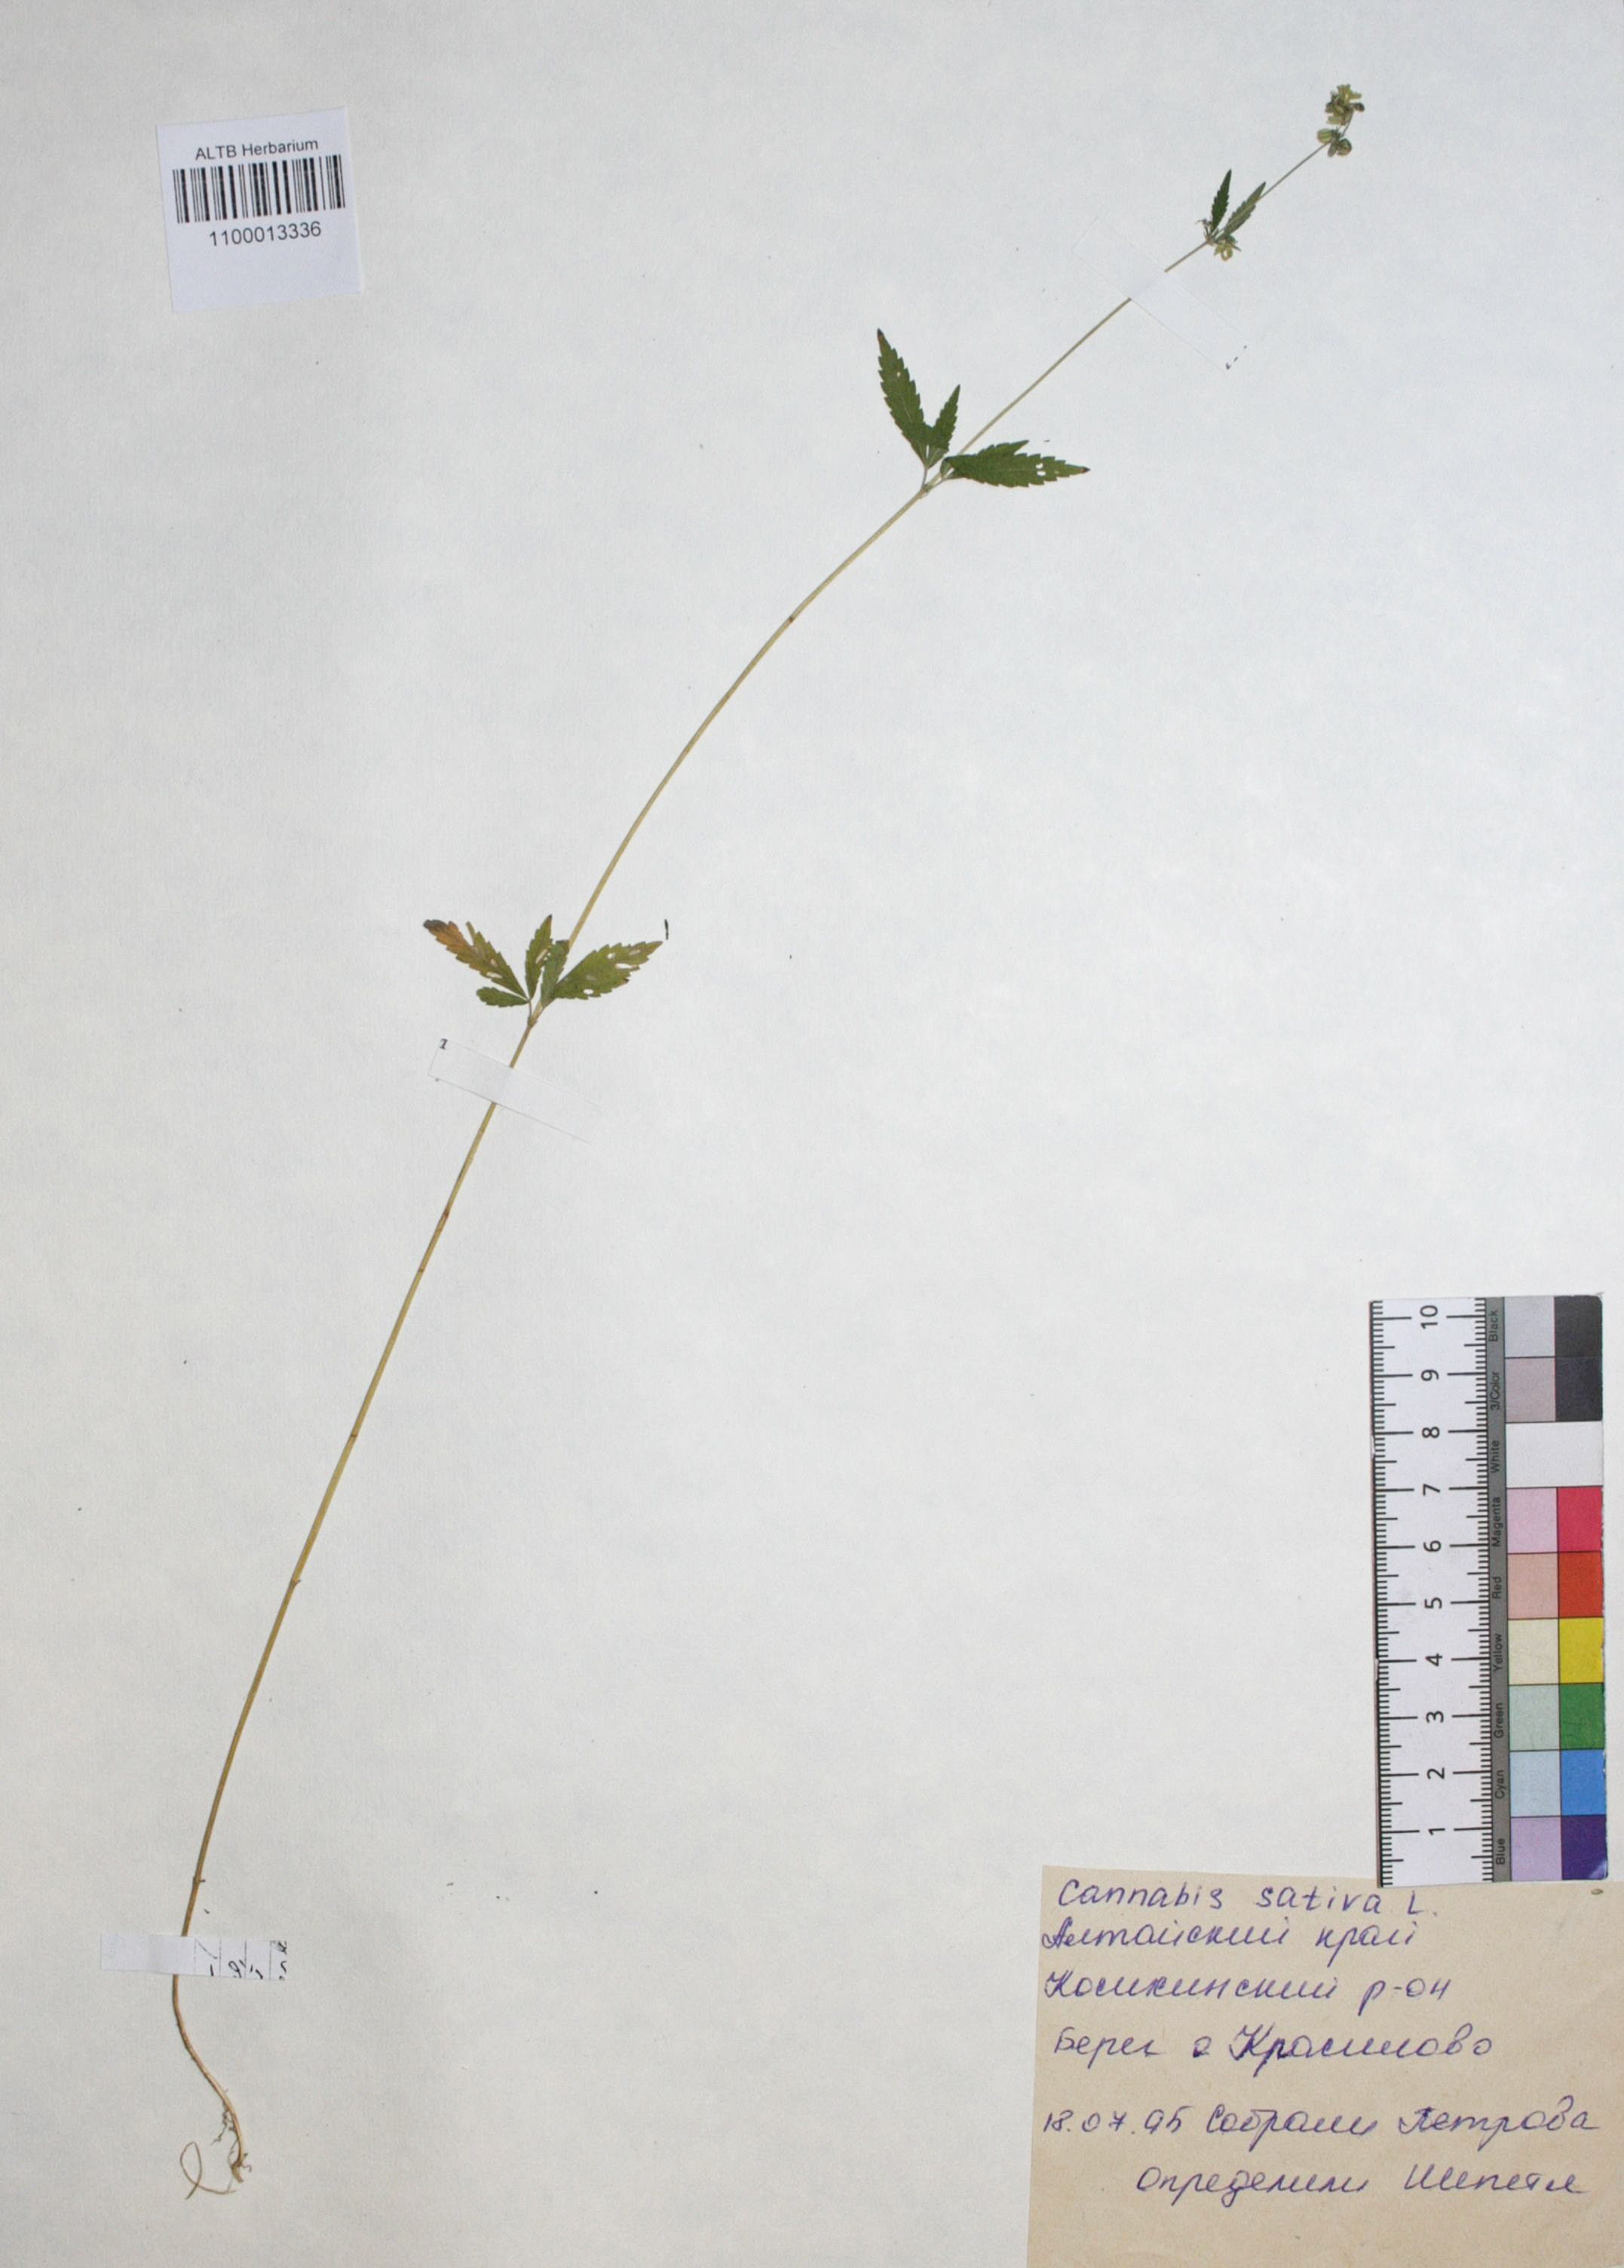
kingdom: Plantae
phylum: Tracheophyta
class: Magnoliopsida
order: Rosales
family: Cannabaceae
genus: Cannabis
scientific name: Cannabis sativa
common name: Hemp
